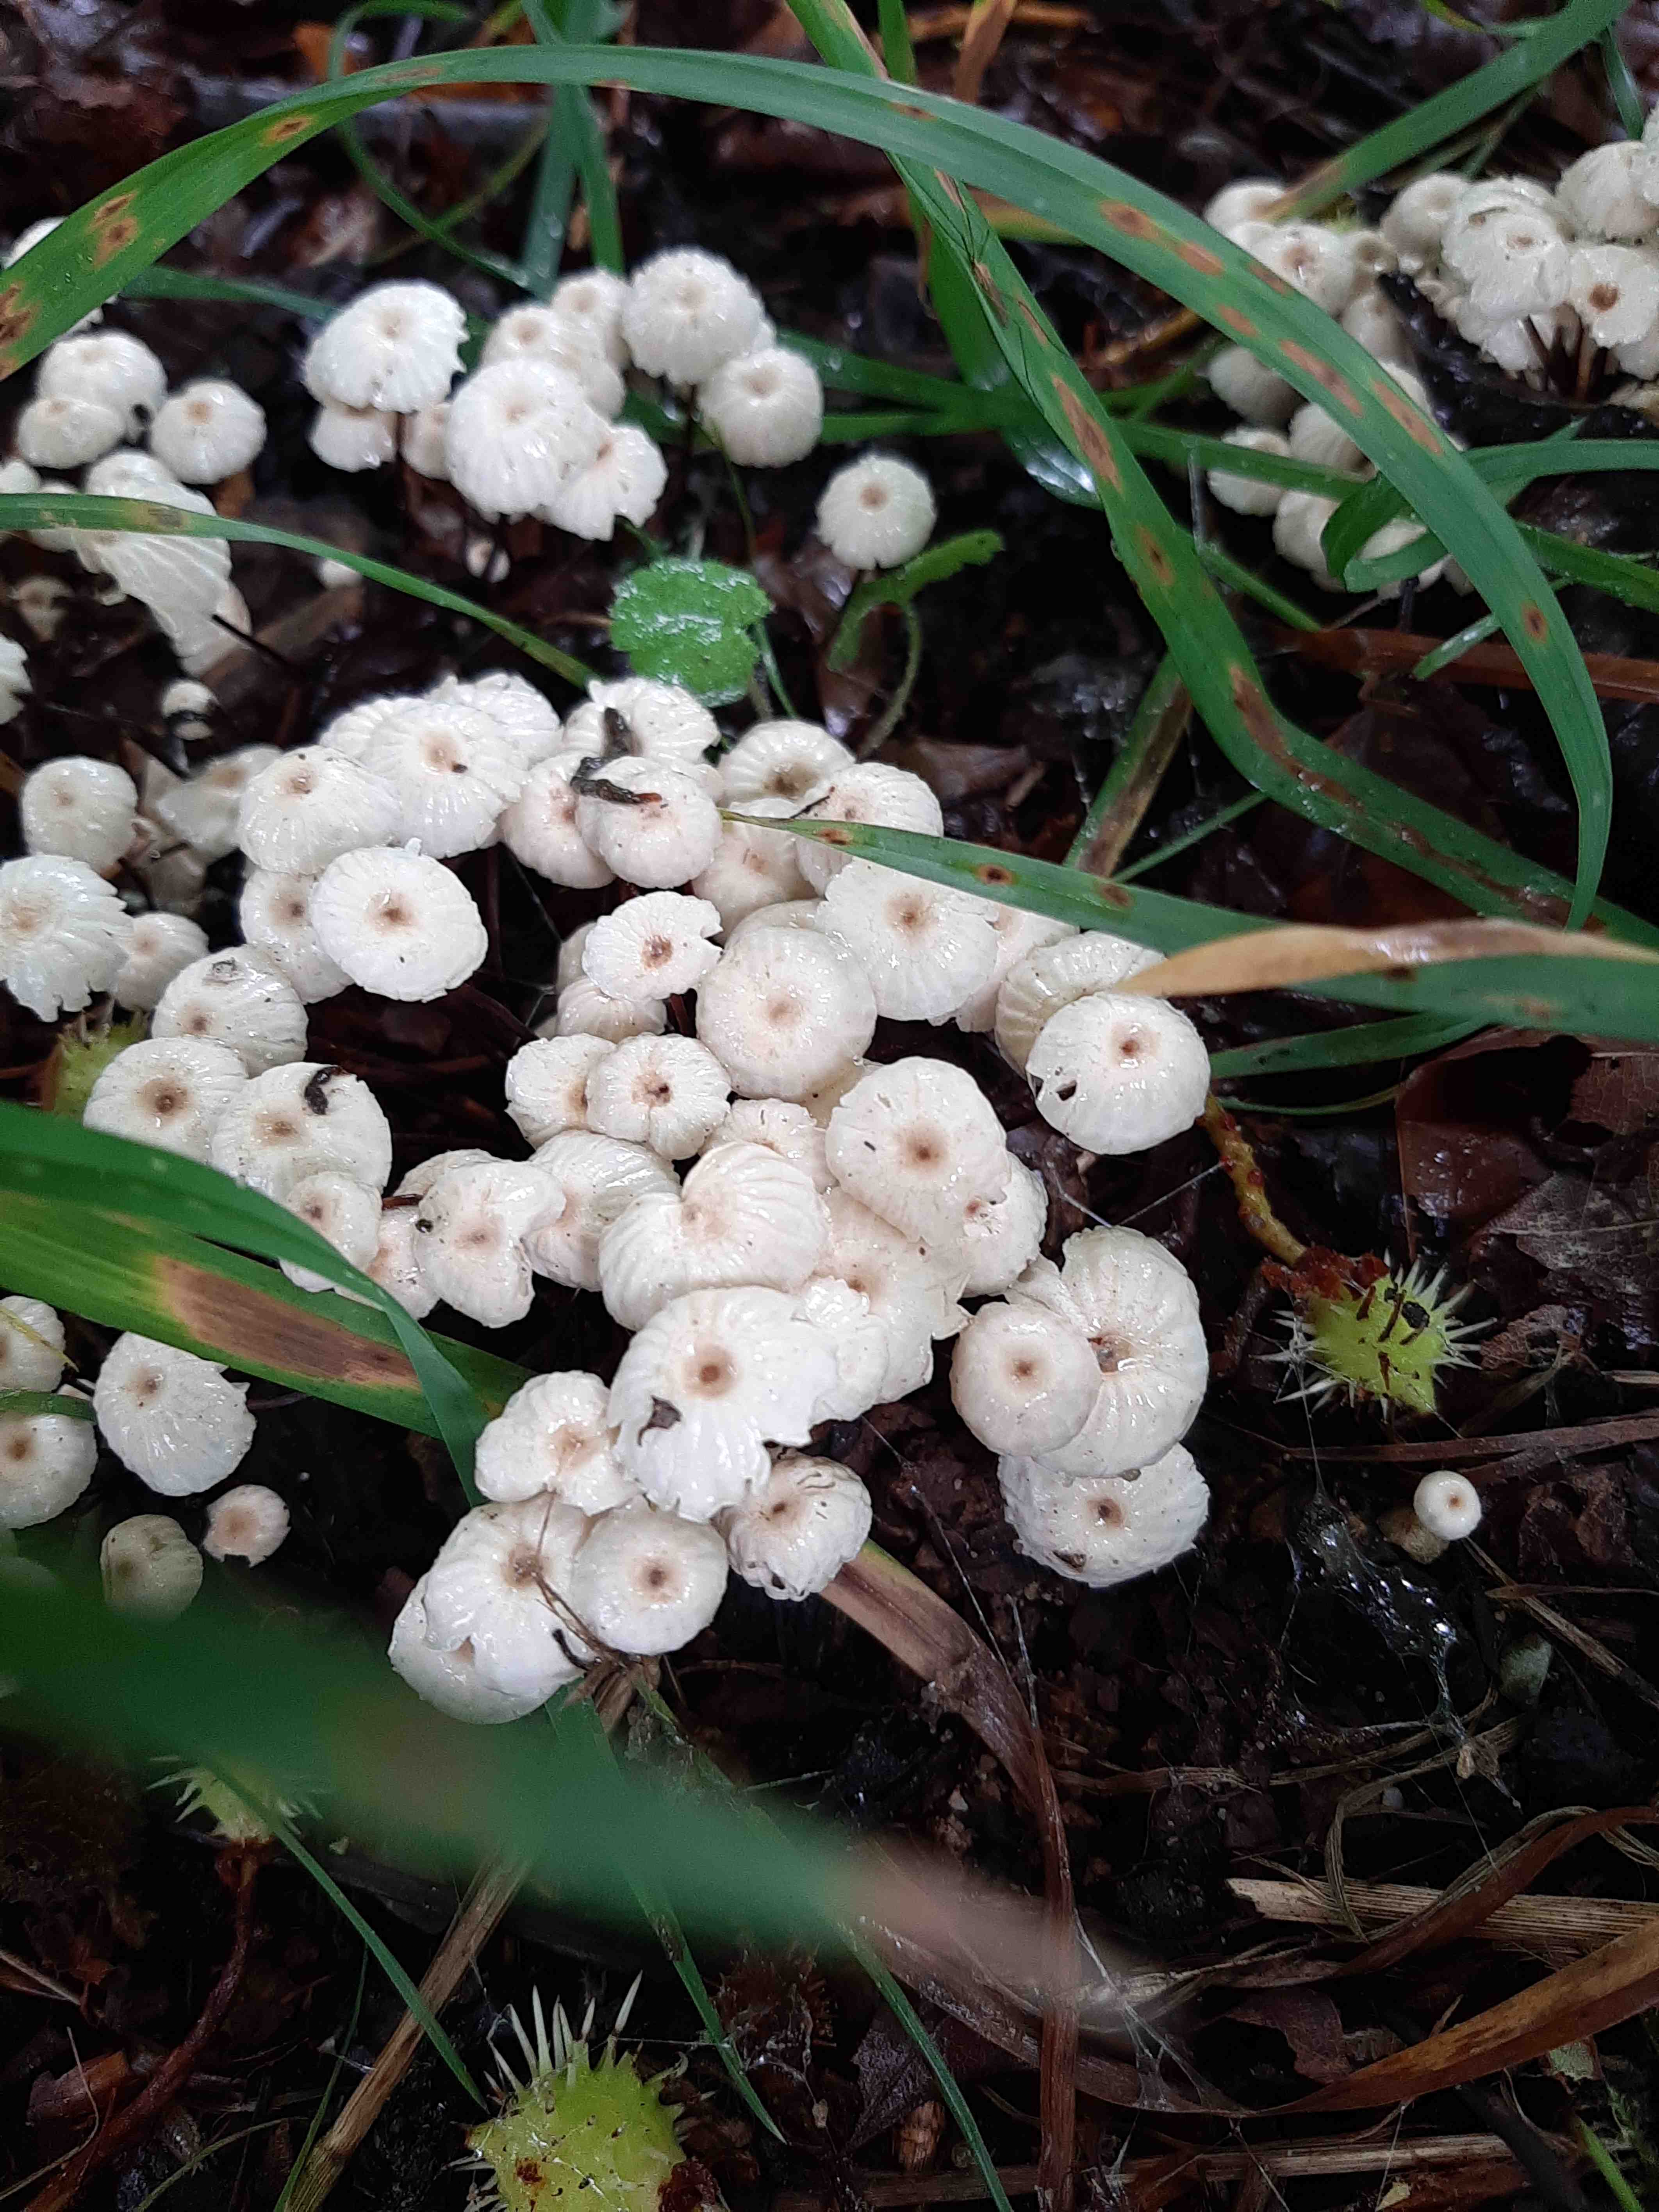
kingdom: Fungi
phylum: Basidiomycota
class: Agaricomycetes
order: Agaricales
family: Marasmiaceae
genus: Marasmius
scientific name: Marasmius rotula
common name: hjul-bruskhat
